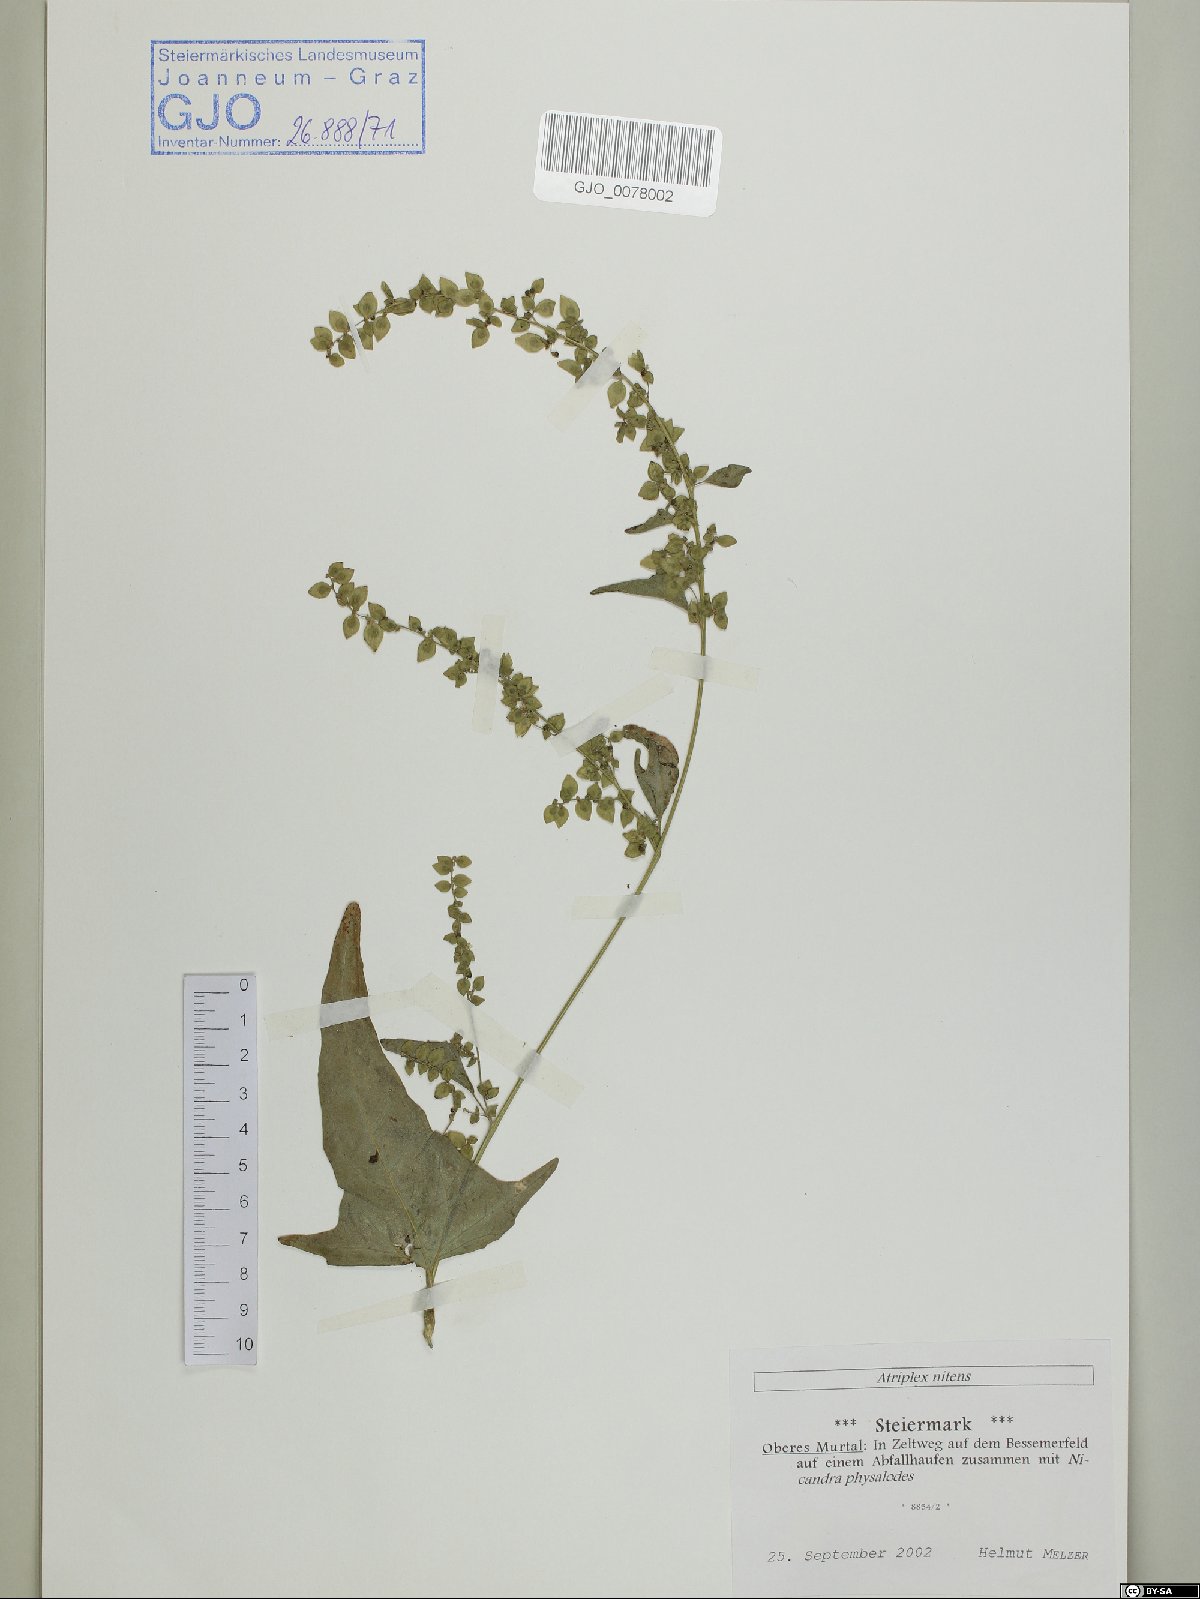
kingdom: Plantae
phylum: Tracheophyta
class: Magnoliopsida
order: Caryophyllales
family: Amaranthaceae
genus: Atriplex
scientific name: Atriplex sagittata
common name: Purple orache
